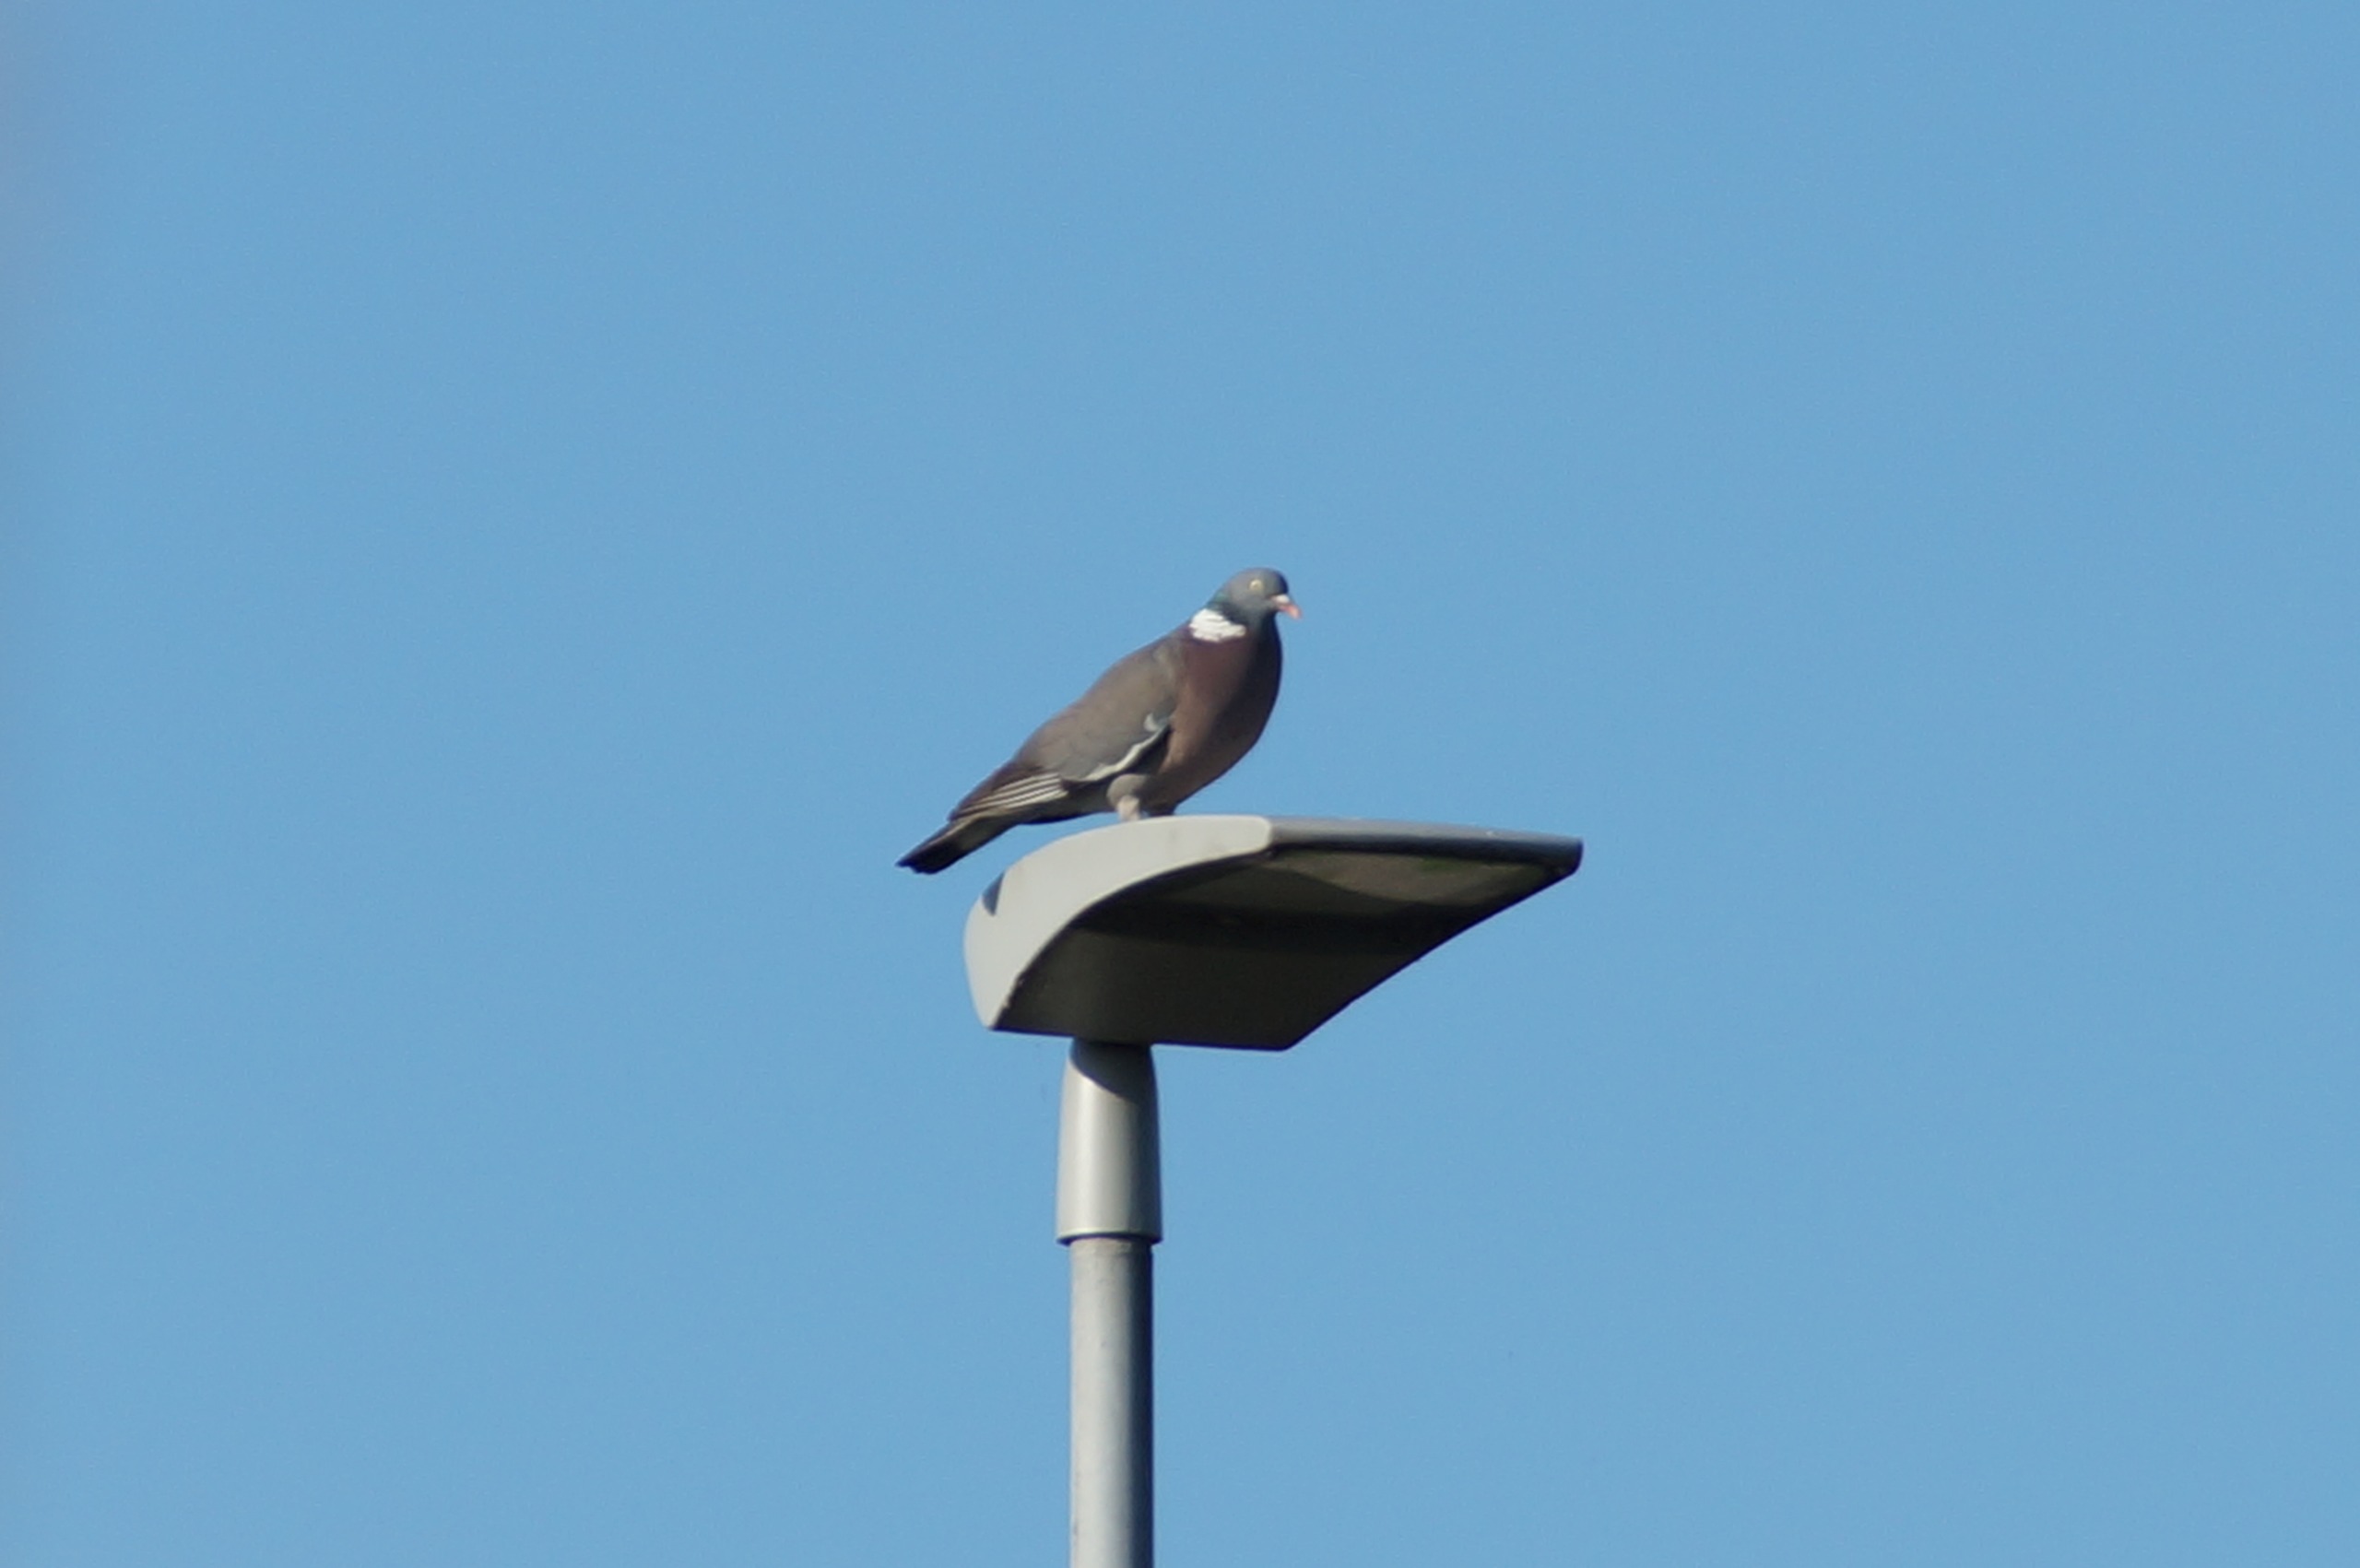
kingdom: Animalia
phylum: Chordata
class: Aves
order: Columbiformes
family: Columbidae
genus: Columba
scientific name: Columba palumbus
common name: Ringdue
